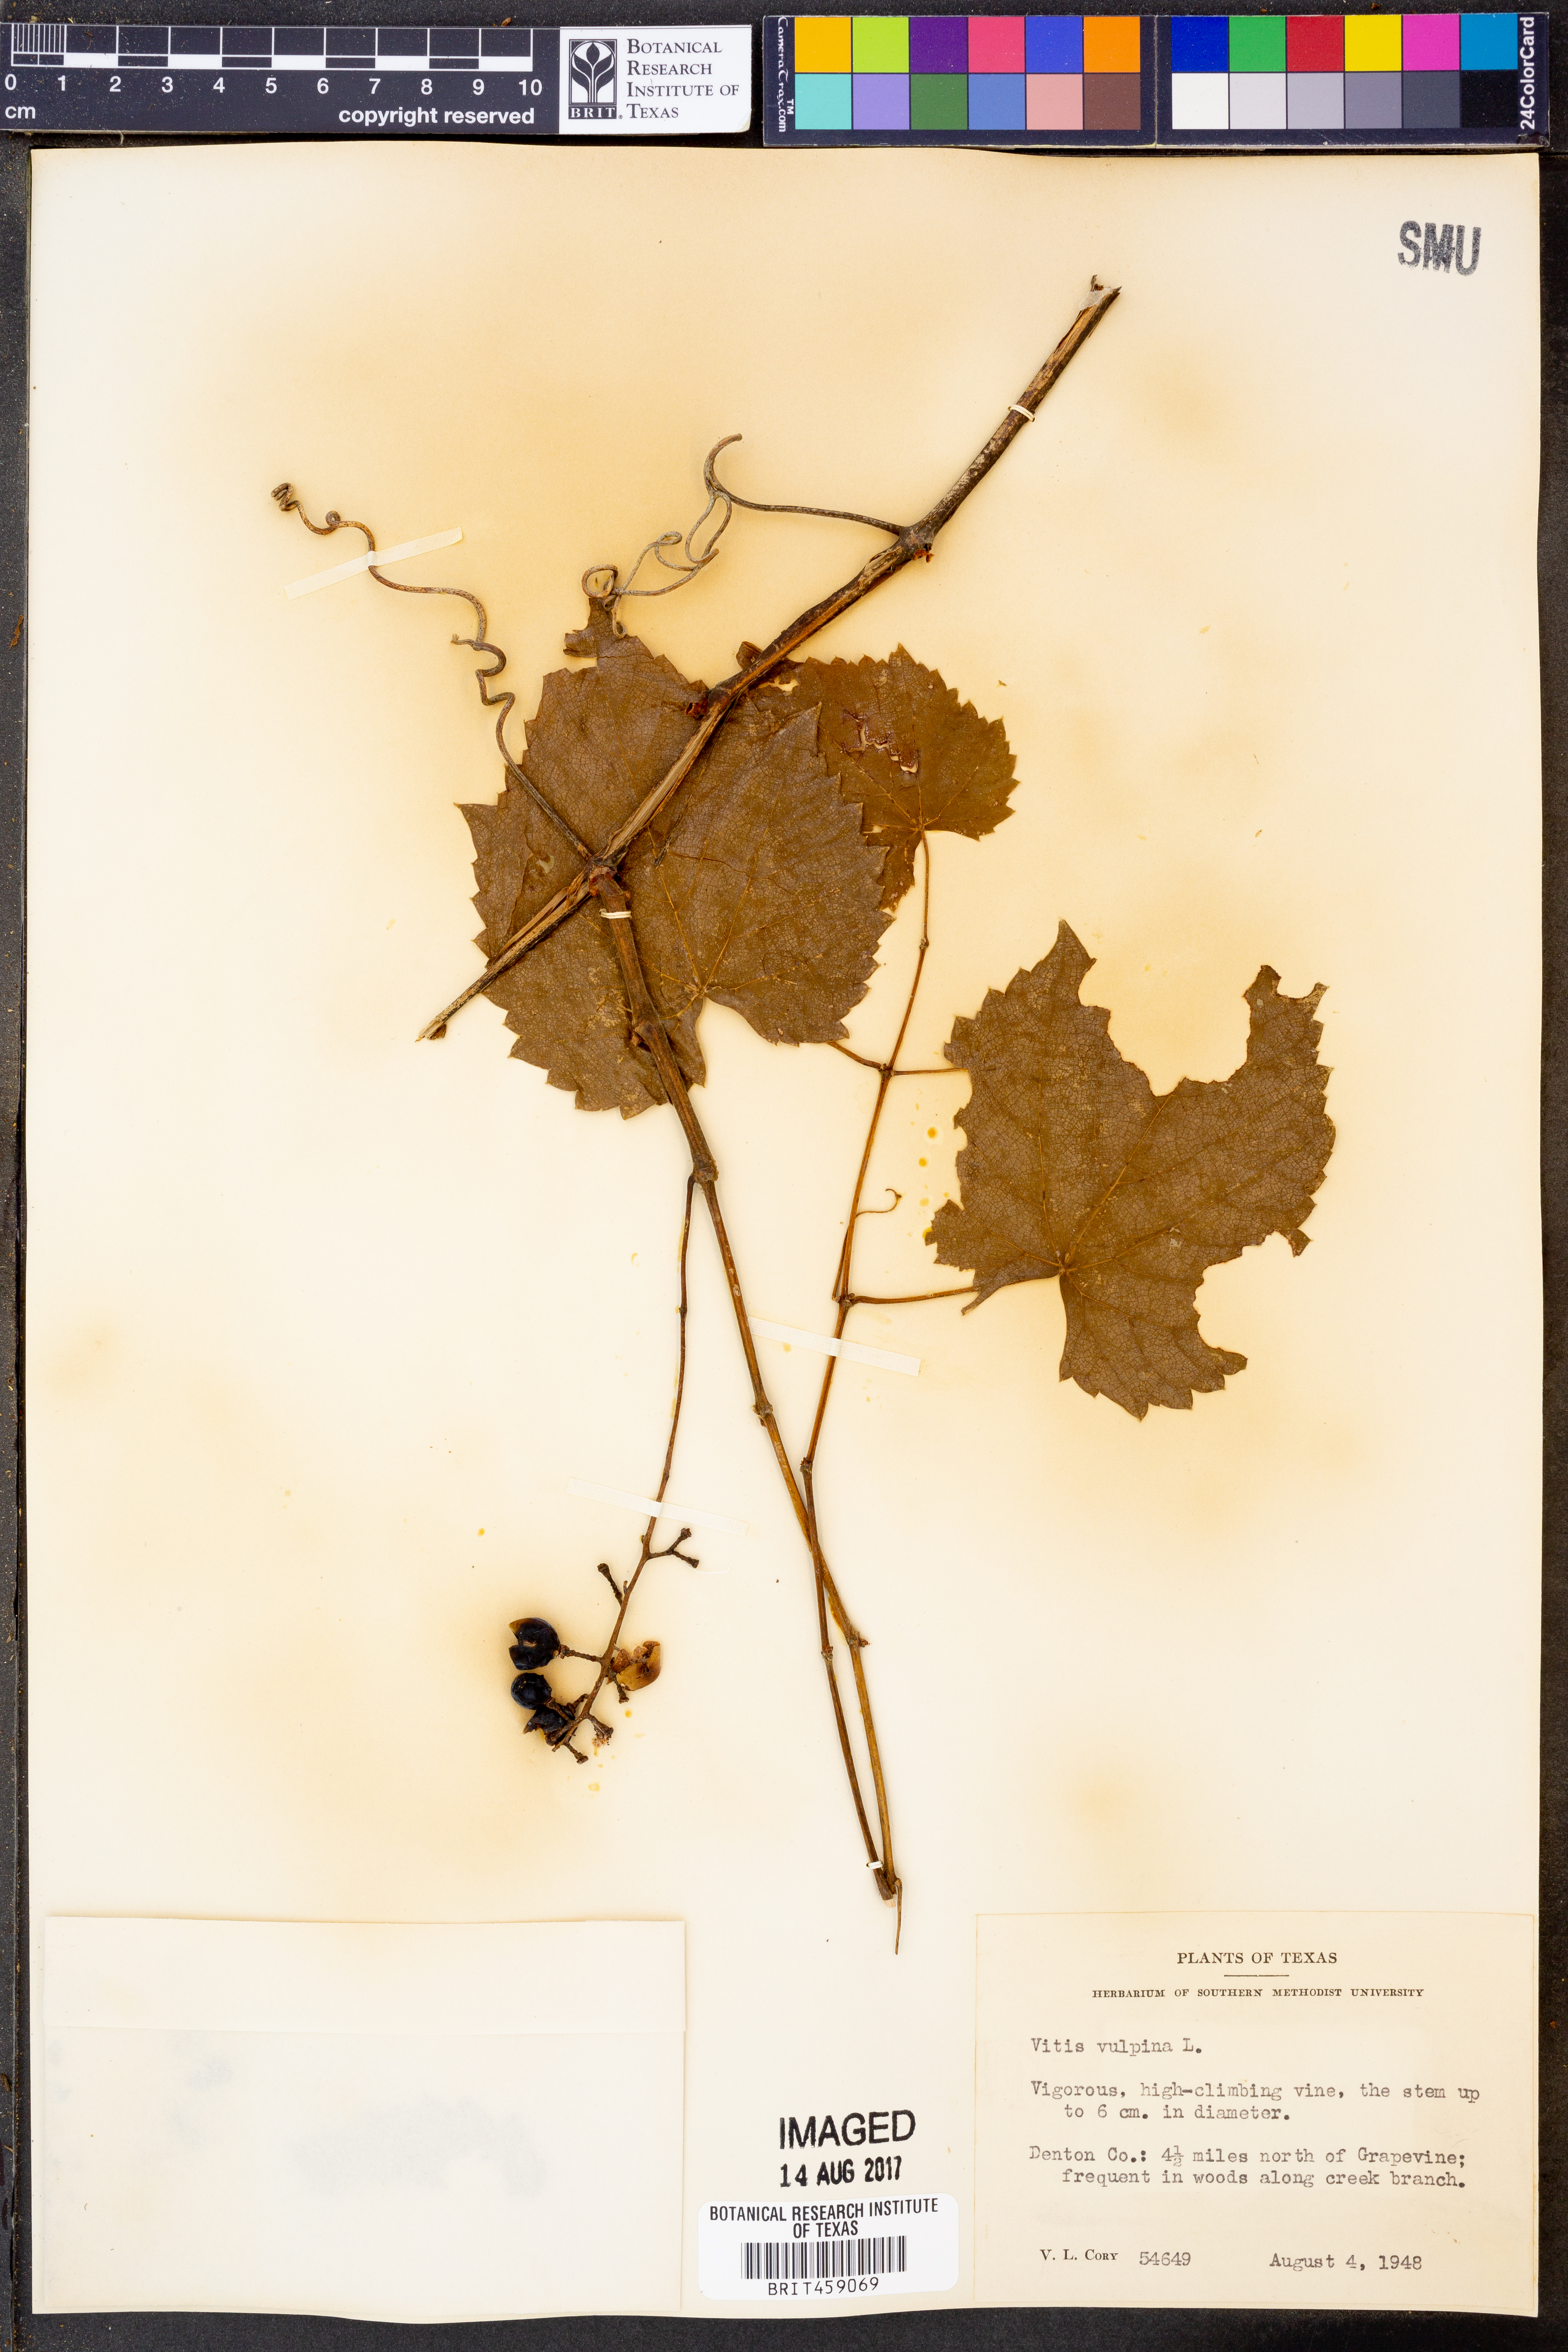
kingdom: Plantae
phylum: Tracheophyta
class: Magnoliopsida
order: Vitales
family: Vitaceae
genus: Vitis
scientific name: Vitis vulpina
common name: Frost grape
